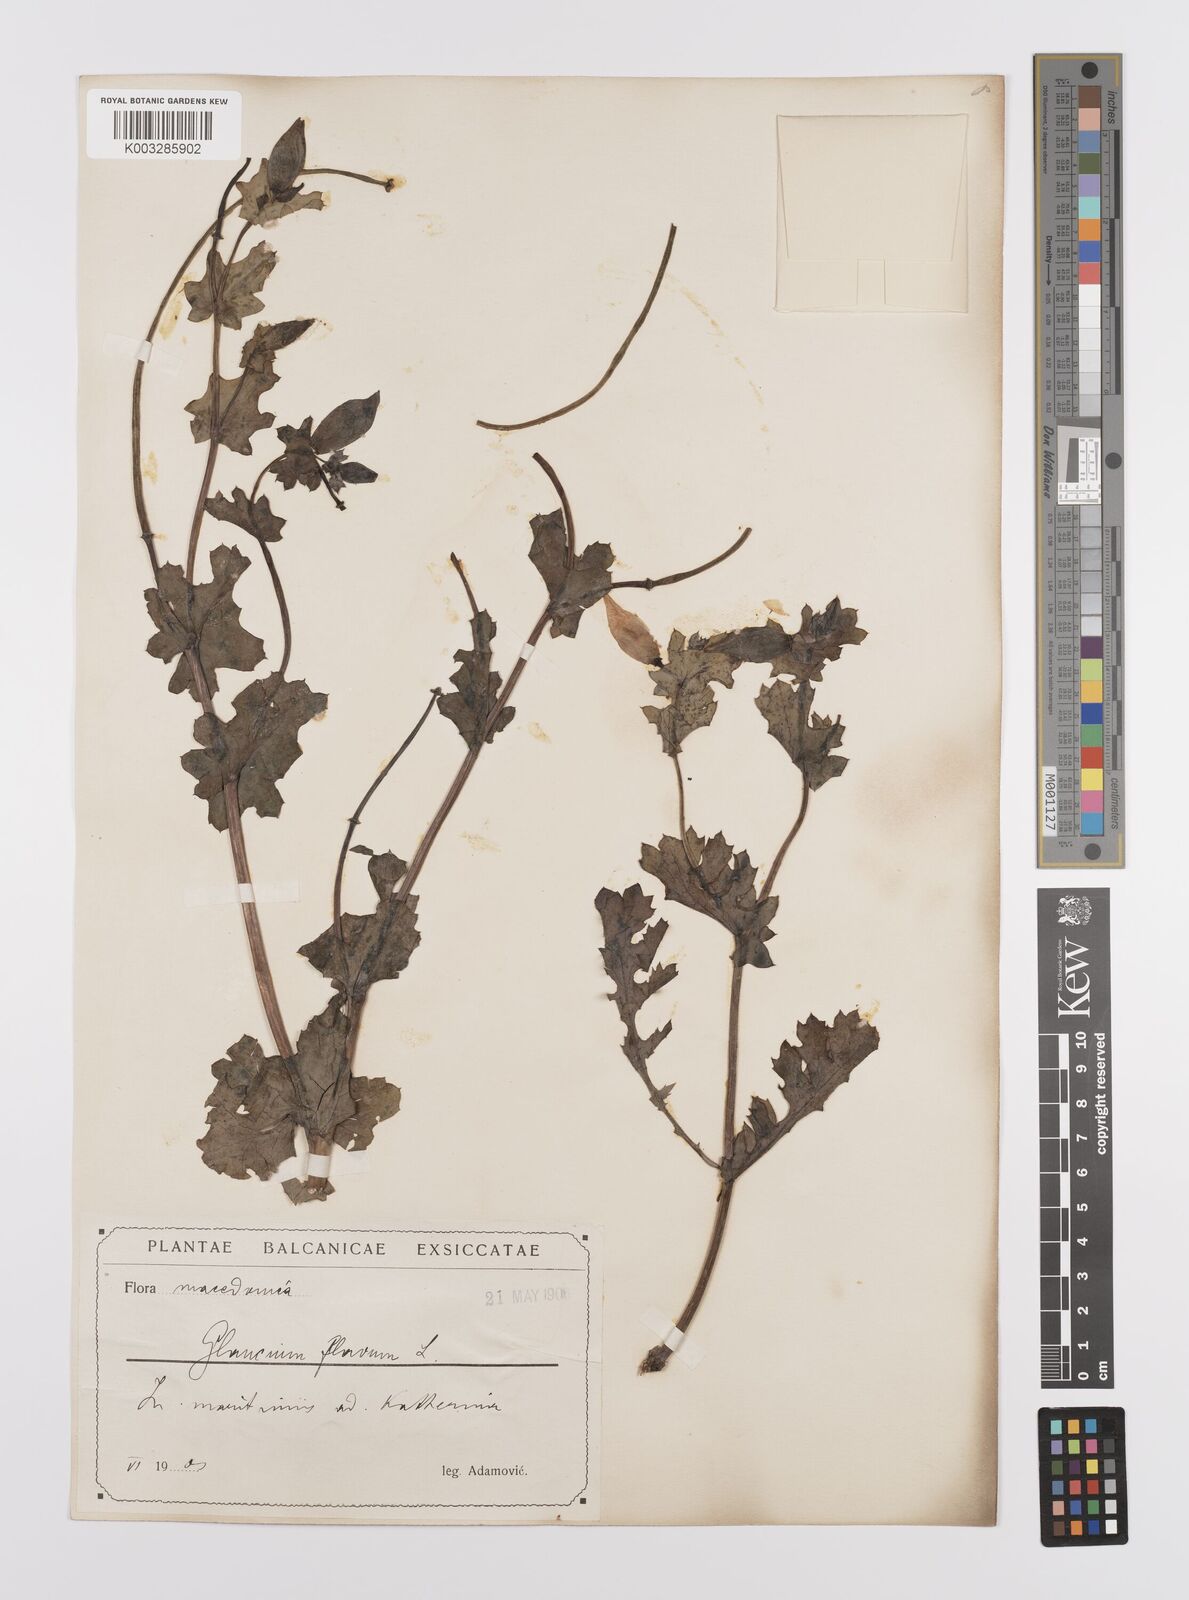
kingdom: Plantae
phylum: Tracheophyta
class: Magnoliopsida
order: Ranunculales
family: Papaveraceae
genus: Glaucium
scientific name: Glaucium flavum
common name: Yellow horned-poppy
